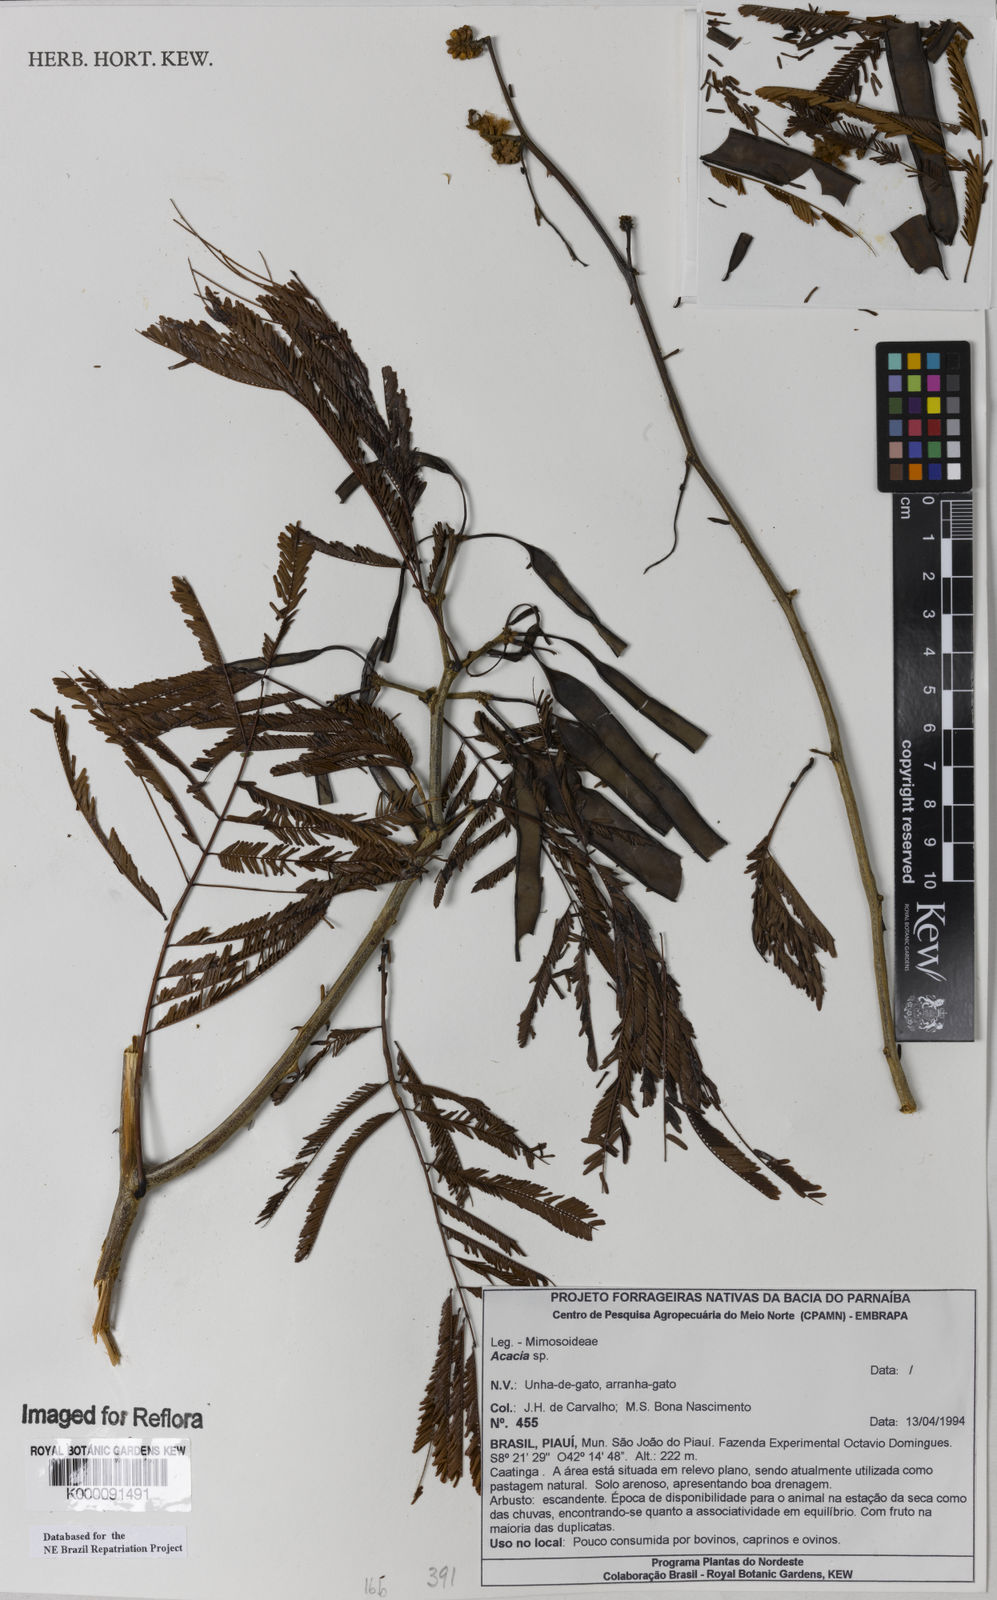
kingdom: Plantae
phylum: Tracheophyta
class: Magnoliopsida
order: Fabales
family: Fabaceae
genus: Acacia
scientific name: Acacia
